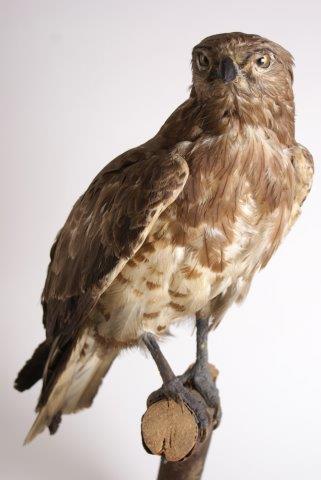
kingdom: Animalia
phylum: Chordata
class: Aves
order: Accipitriformes
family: Accipitridae
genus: Aquila
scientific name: Aquila nipalensis
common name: Steppearend
